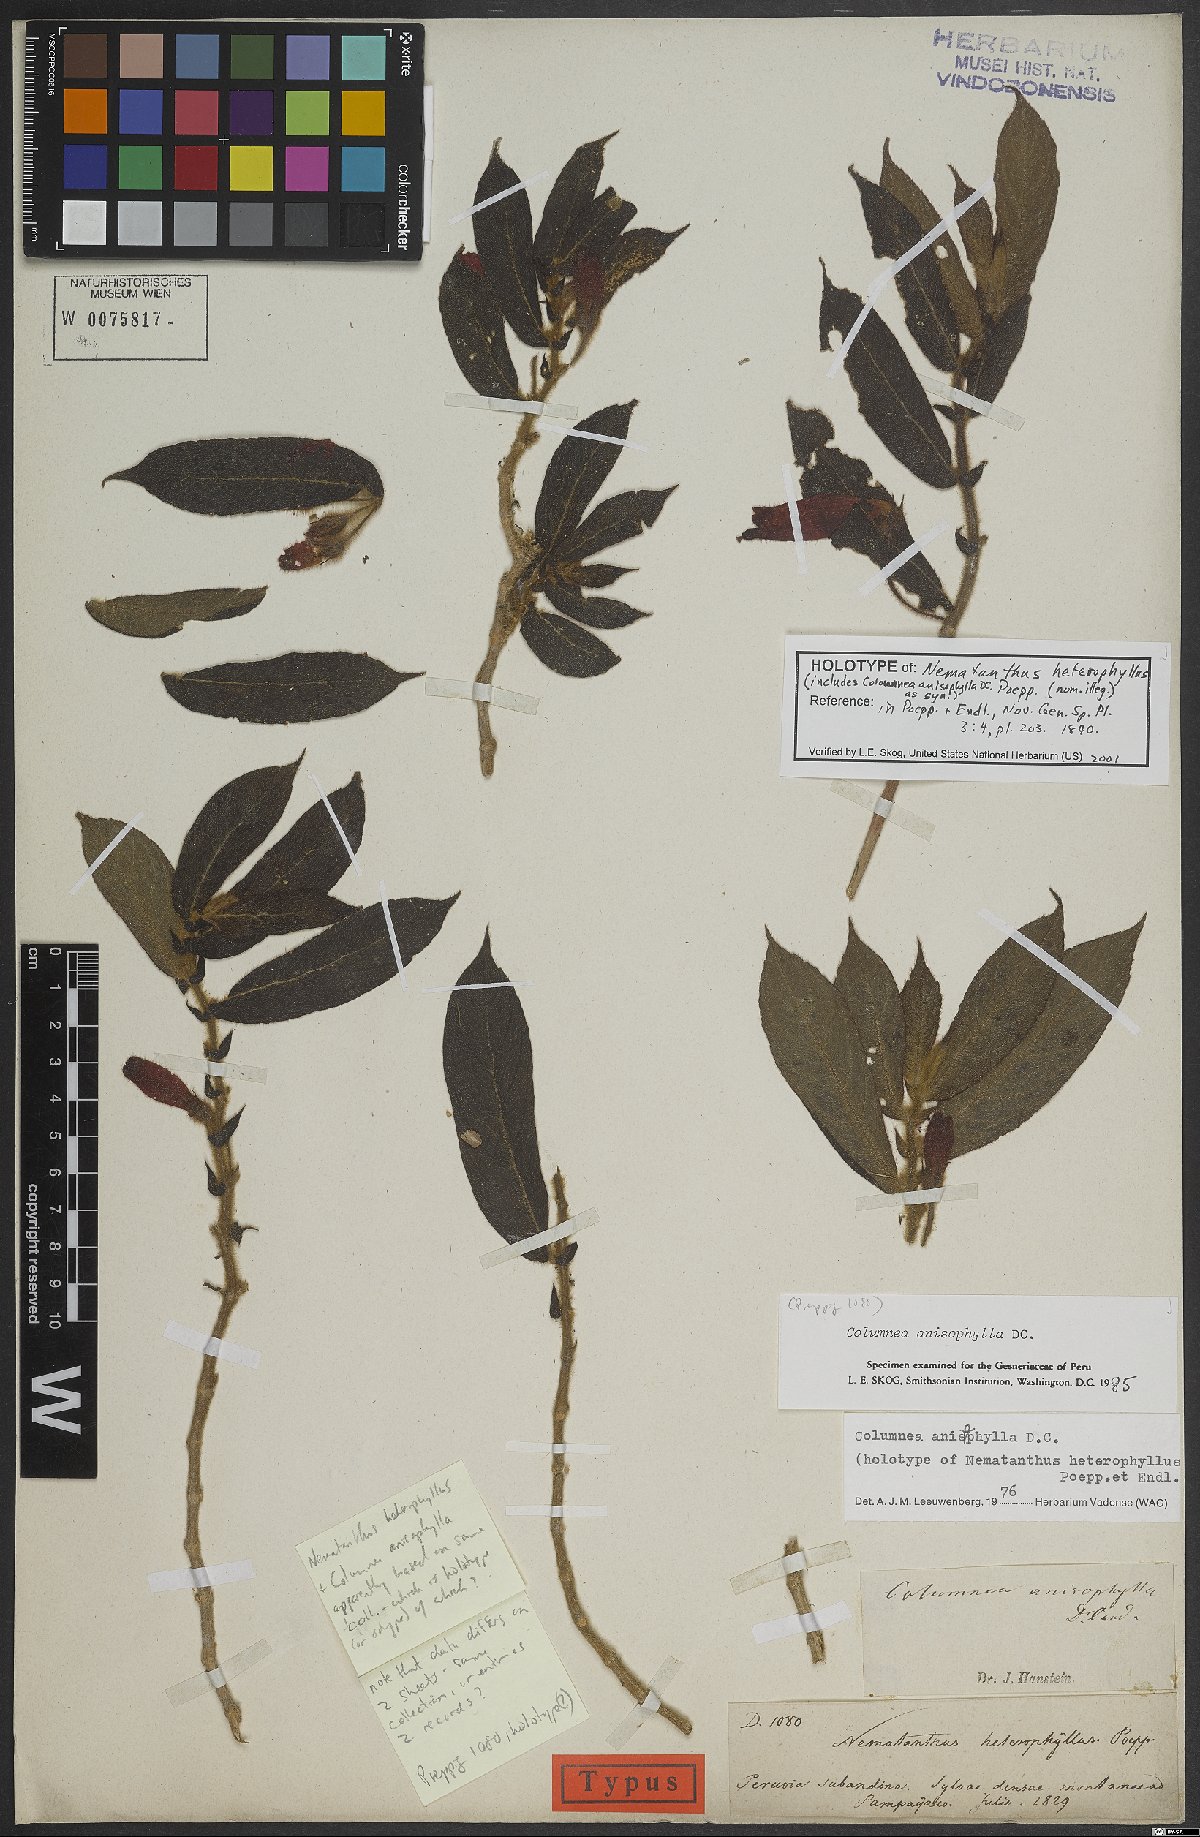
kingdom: Plantae
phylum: Tracheophyta
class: Magnoliopsida
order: Lamiales
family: Gesneriaceae
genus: Columnea
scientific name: Columnea anisophylla
